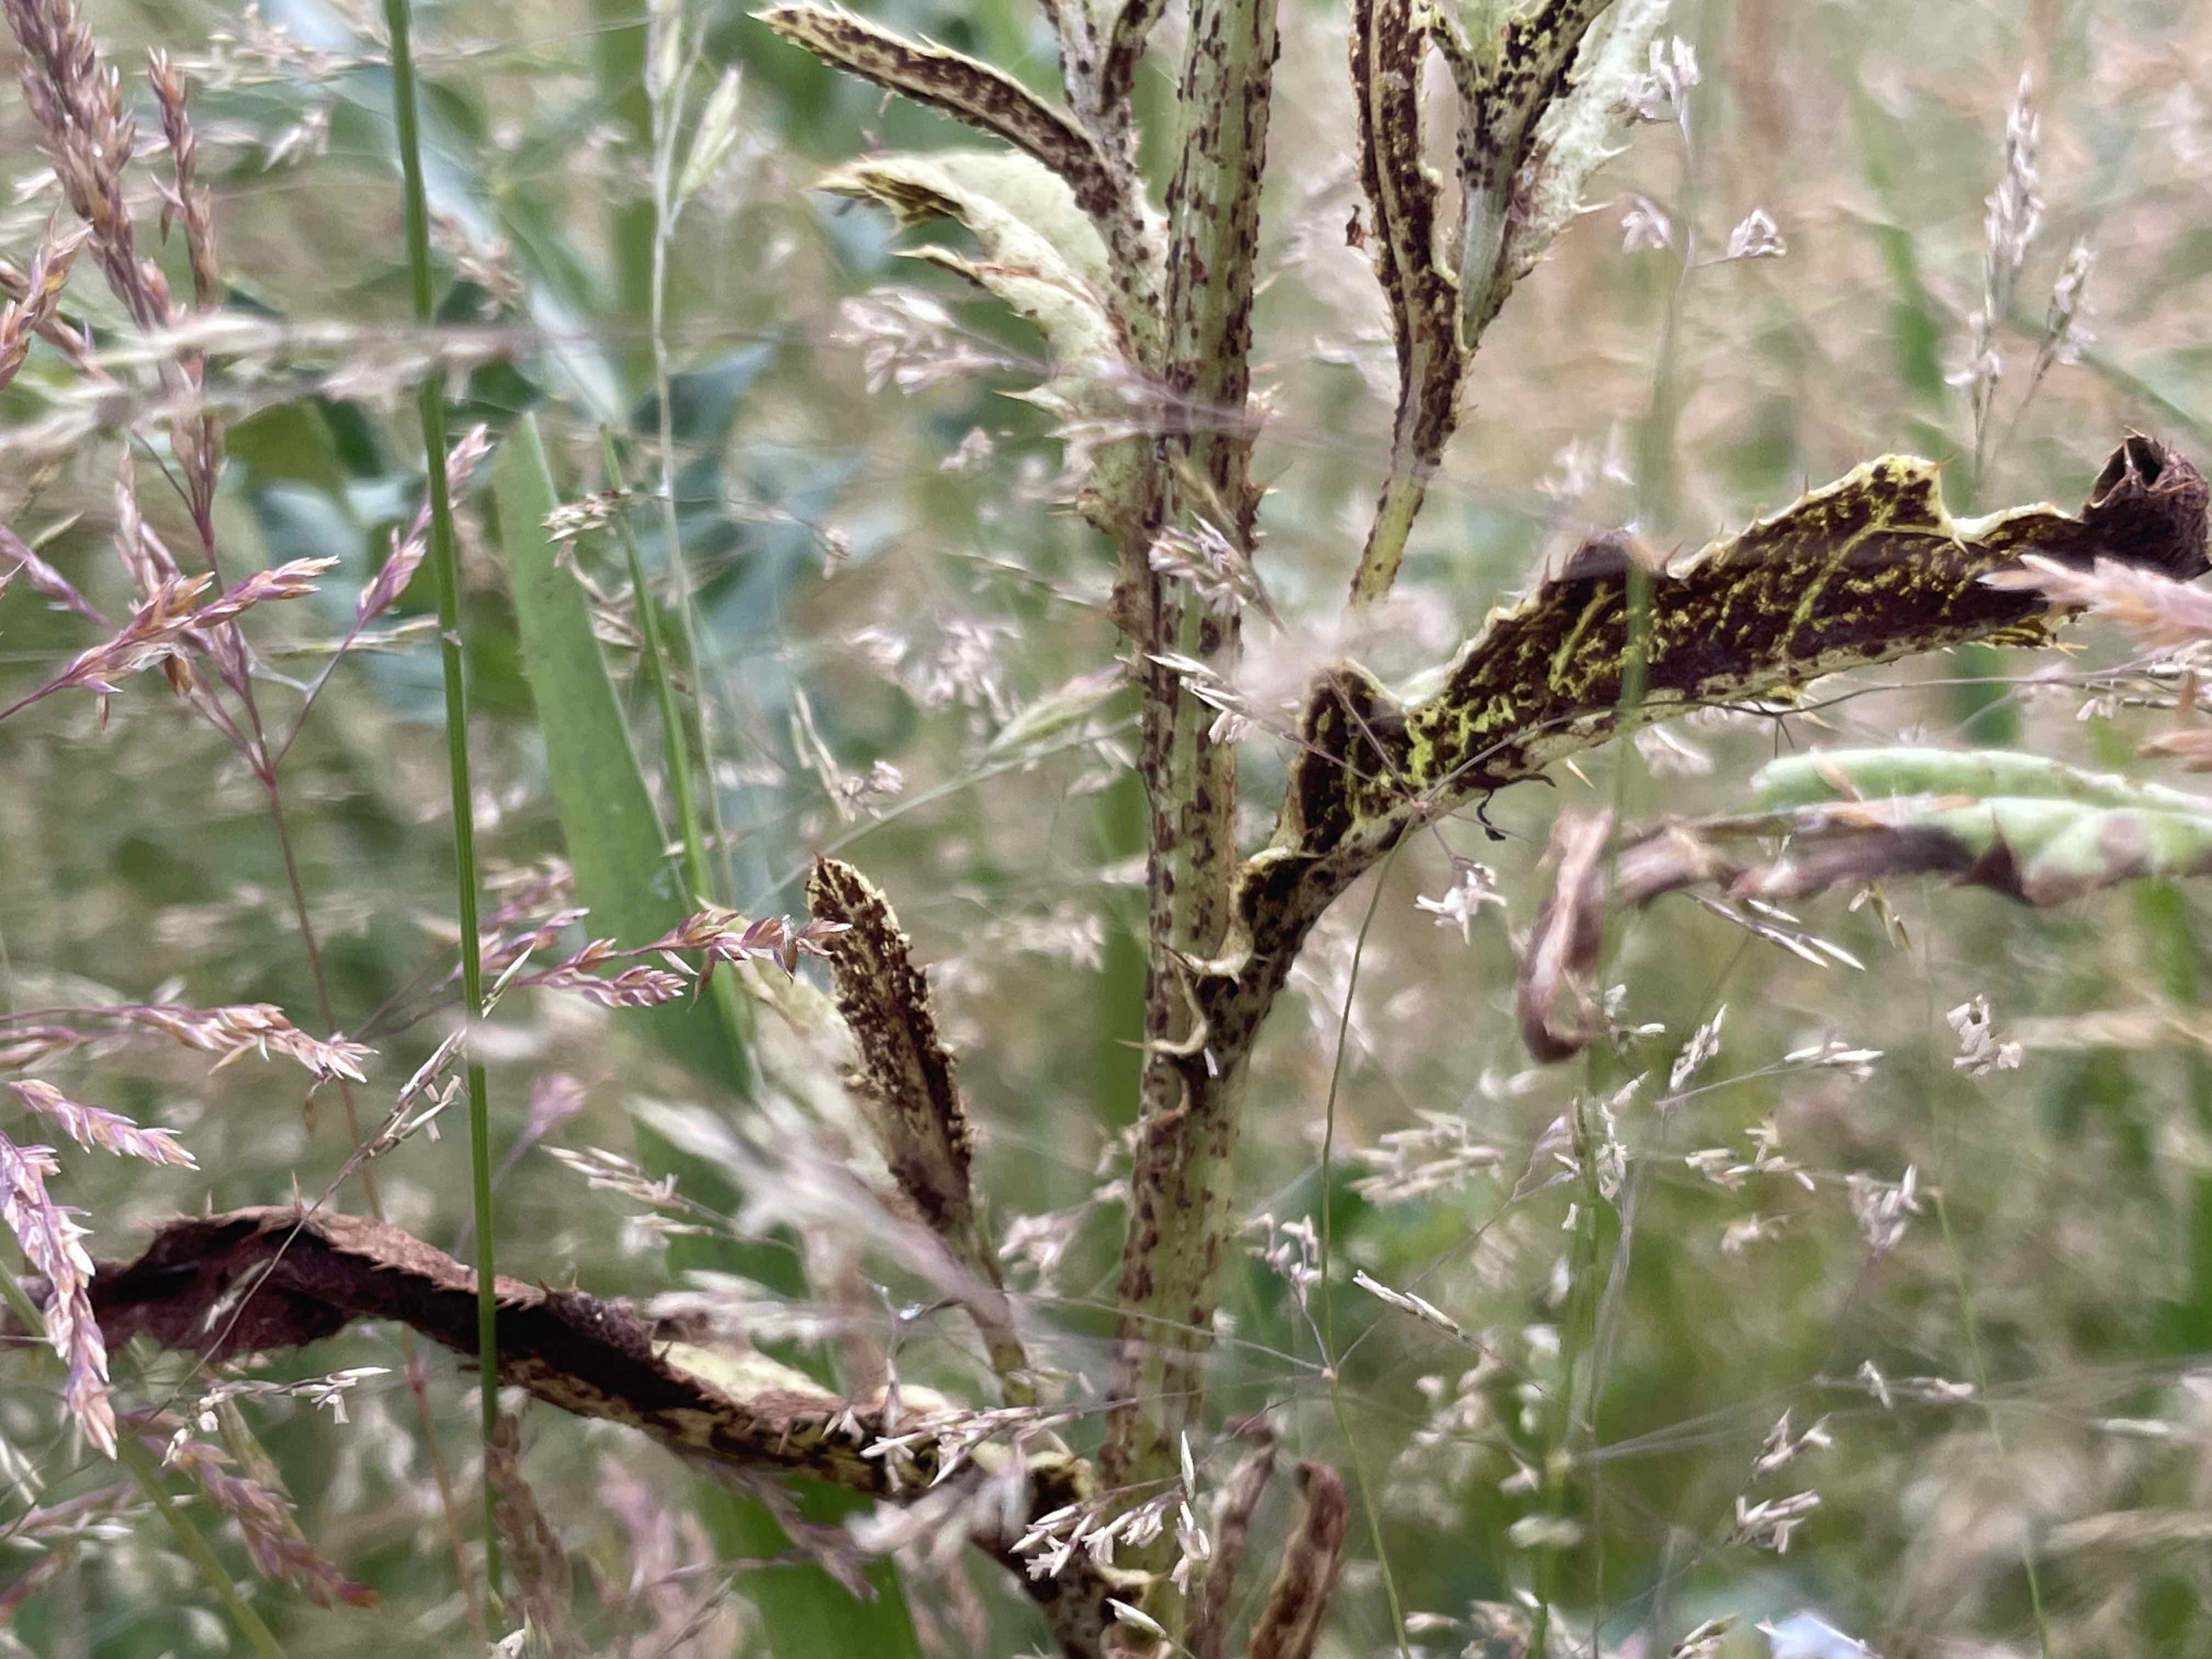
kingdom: Fungi
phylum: Basidiomycota
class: Pucciniomycetes
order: Pucciniales
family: Pucciniaceae
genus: Puccinia
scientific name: Puccinia suaveolens
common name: tidsel-tvecellerust
